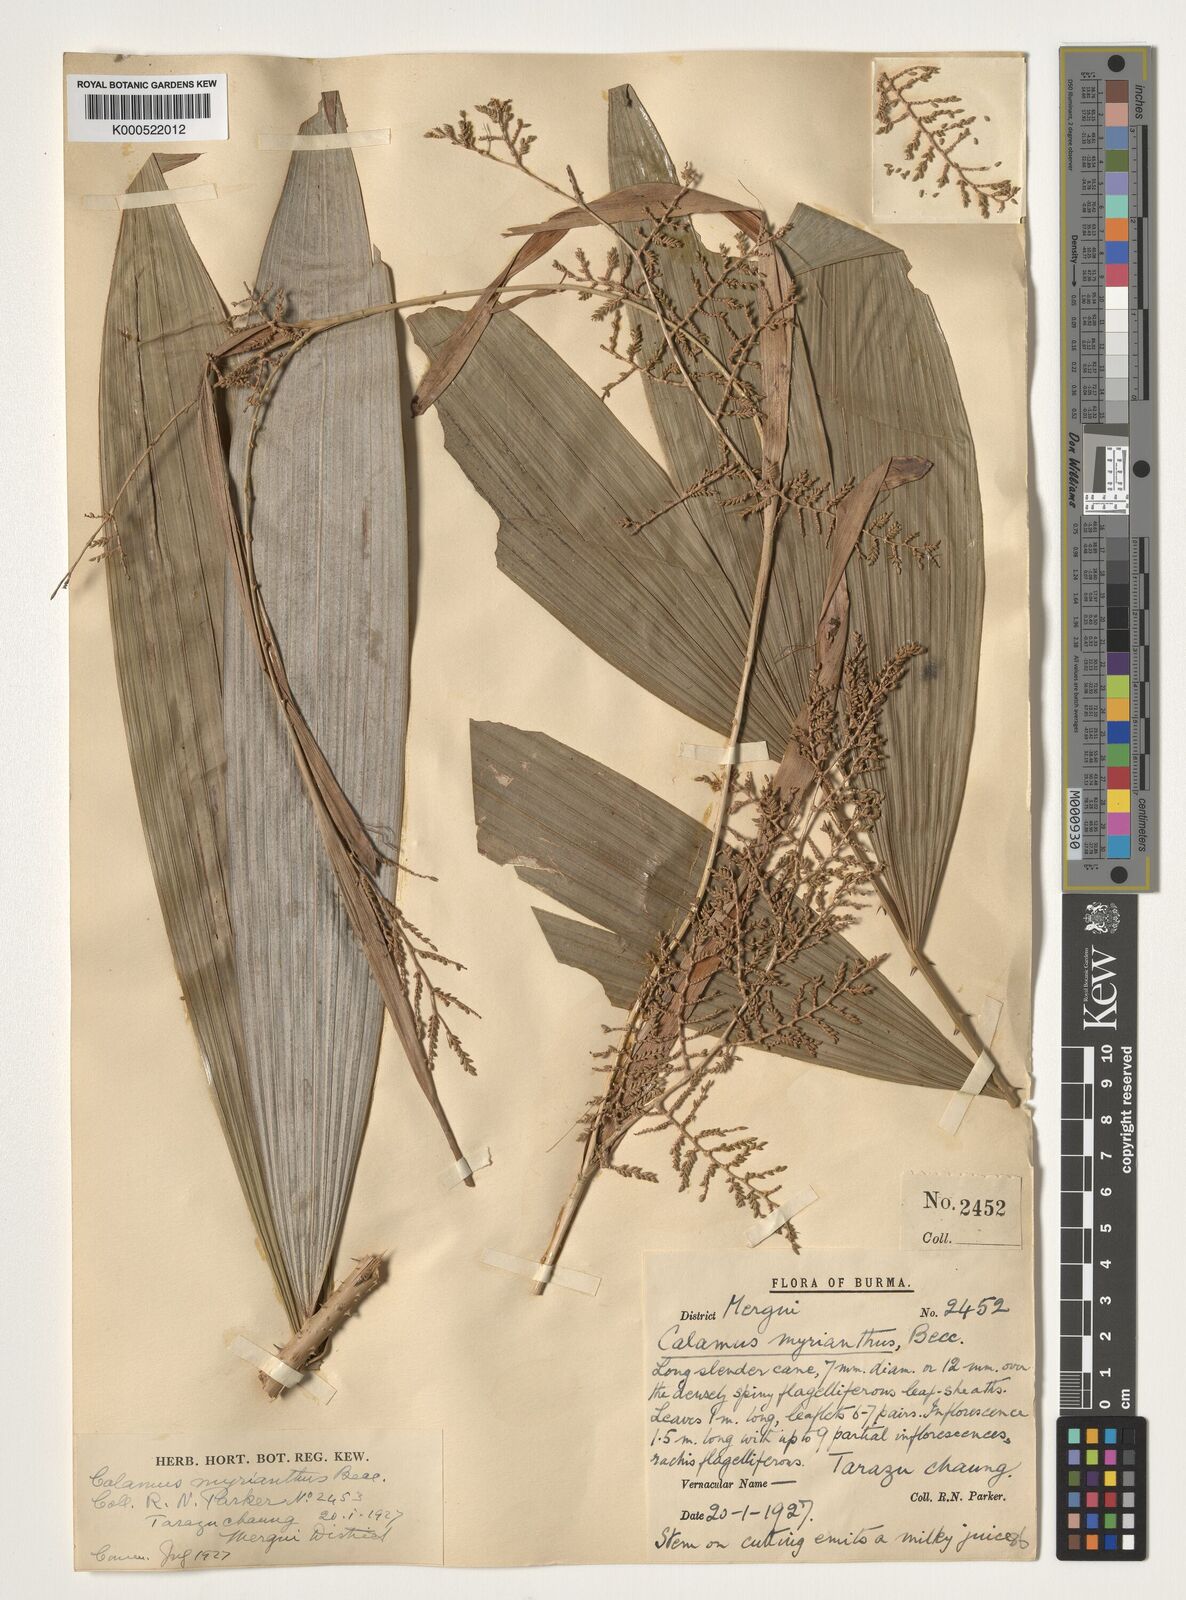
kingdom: Plantae
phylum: Tracheophyta
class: Liliopsida
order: Arecales
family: Arecaceae
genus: Calamus
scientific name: Calamus myrianthus
